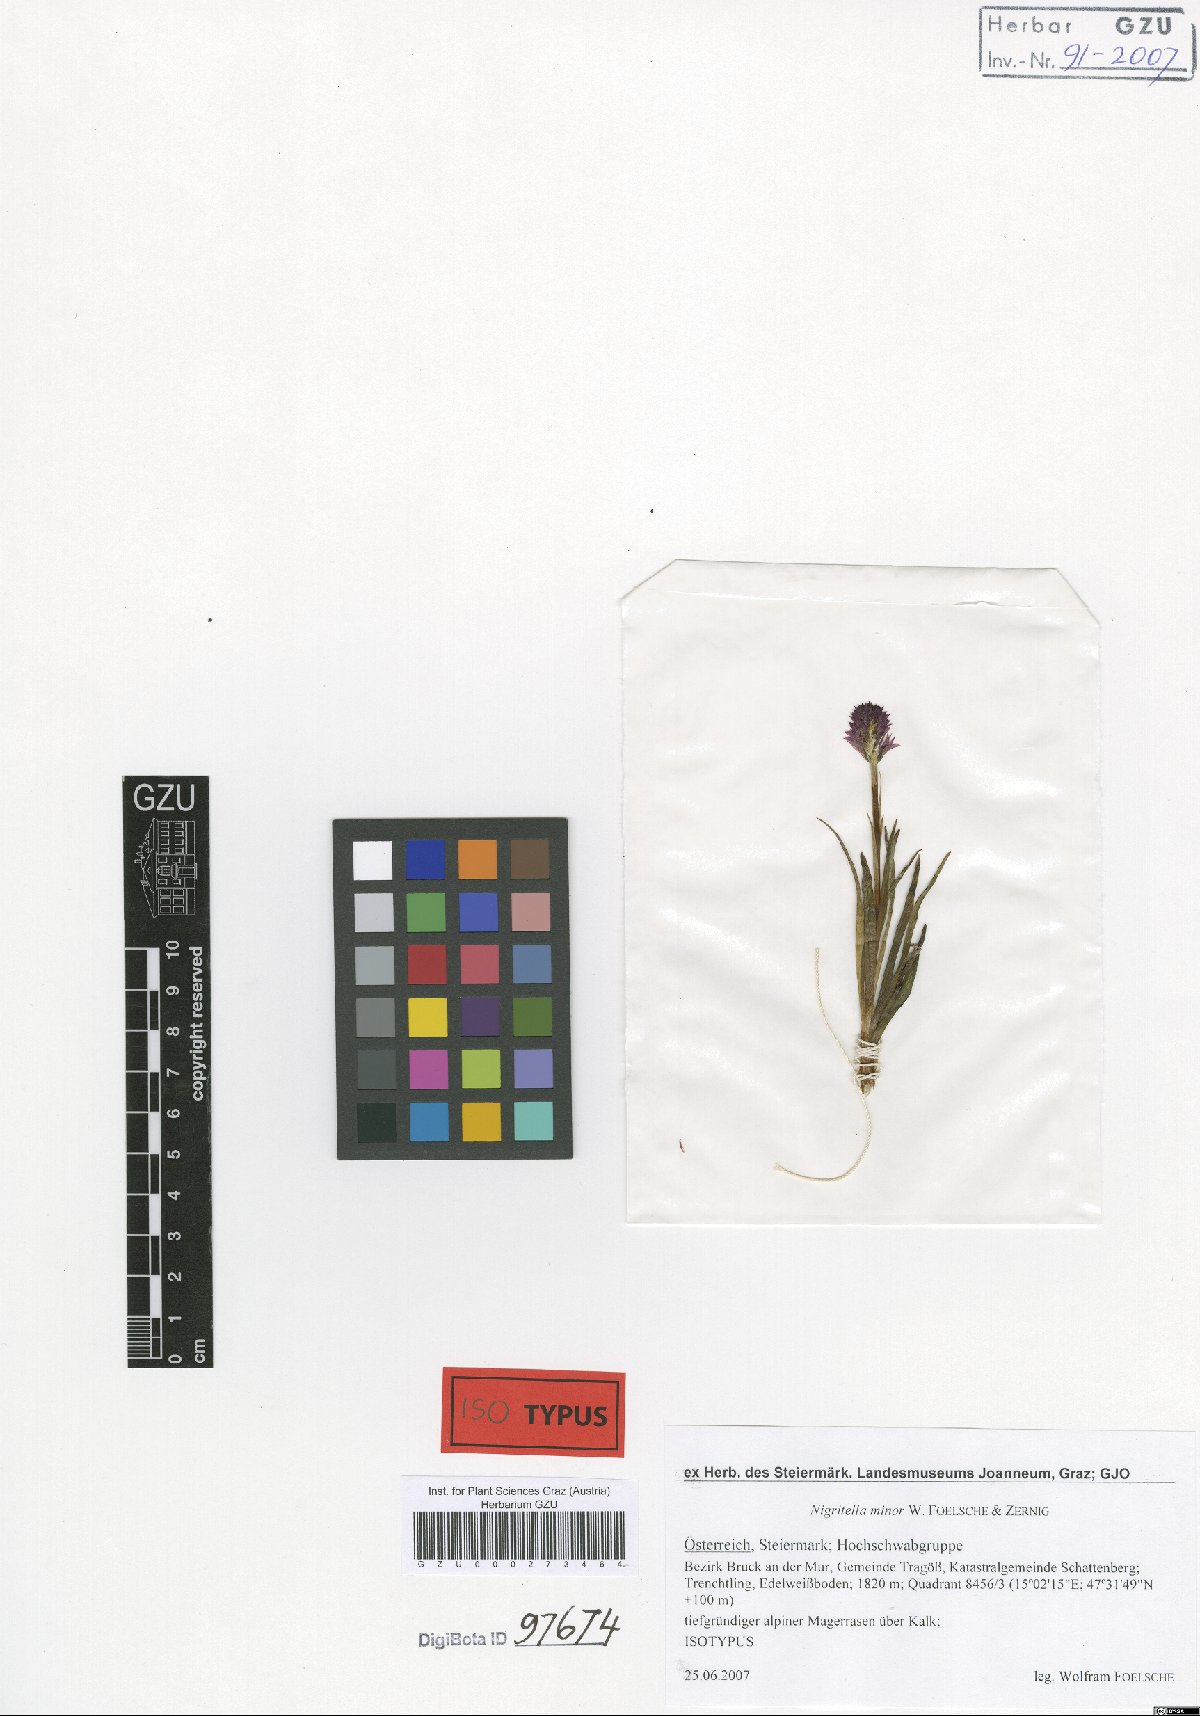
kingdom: Plantae
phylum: Tracheophyta
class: Liliopsida
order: Asparagales
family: Orchidaceae
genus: Gymnadenia
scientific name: Gymnadenia miniata
